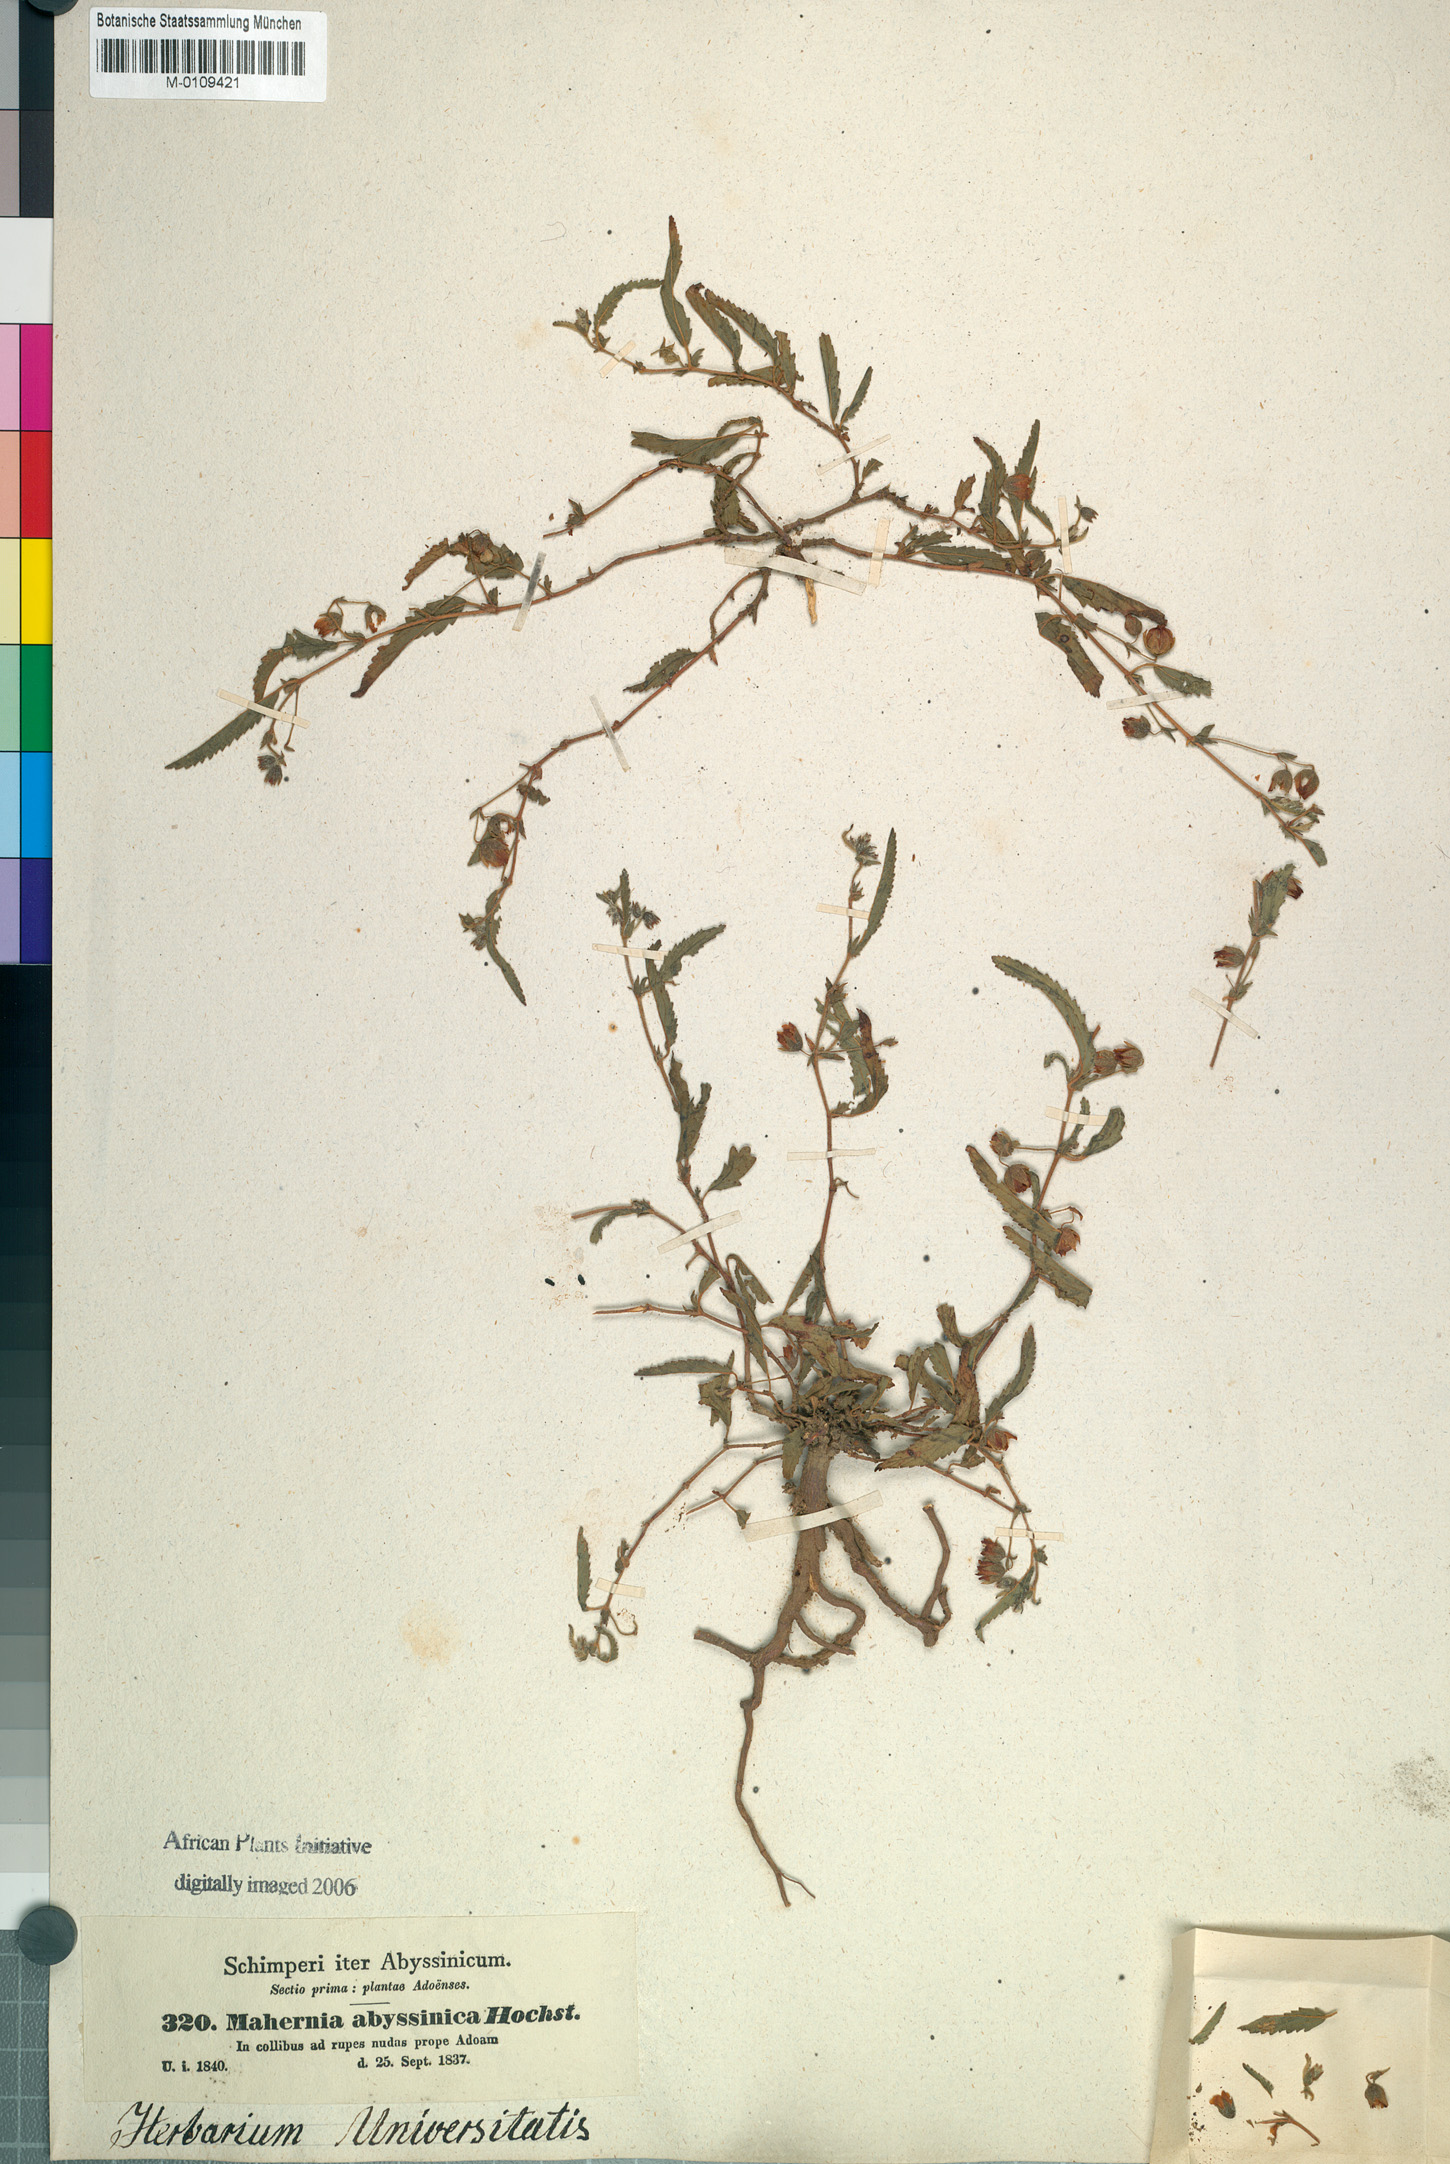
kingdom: Plantae
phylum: Tracheophyta
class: Magnoliopsida
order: Malvales
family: Malvaceae
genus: Hermannia
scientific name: Hermannia quartiniana
